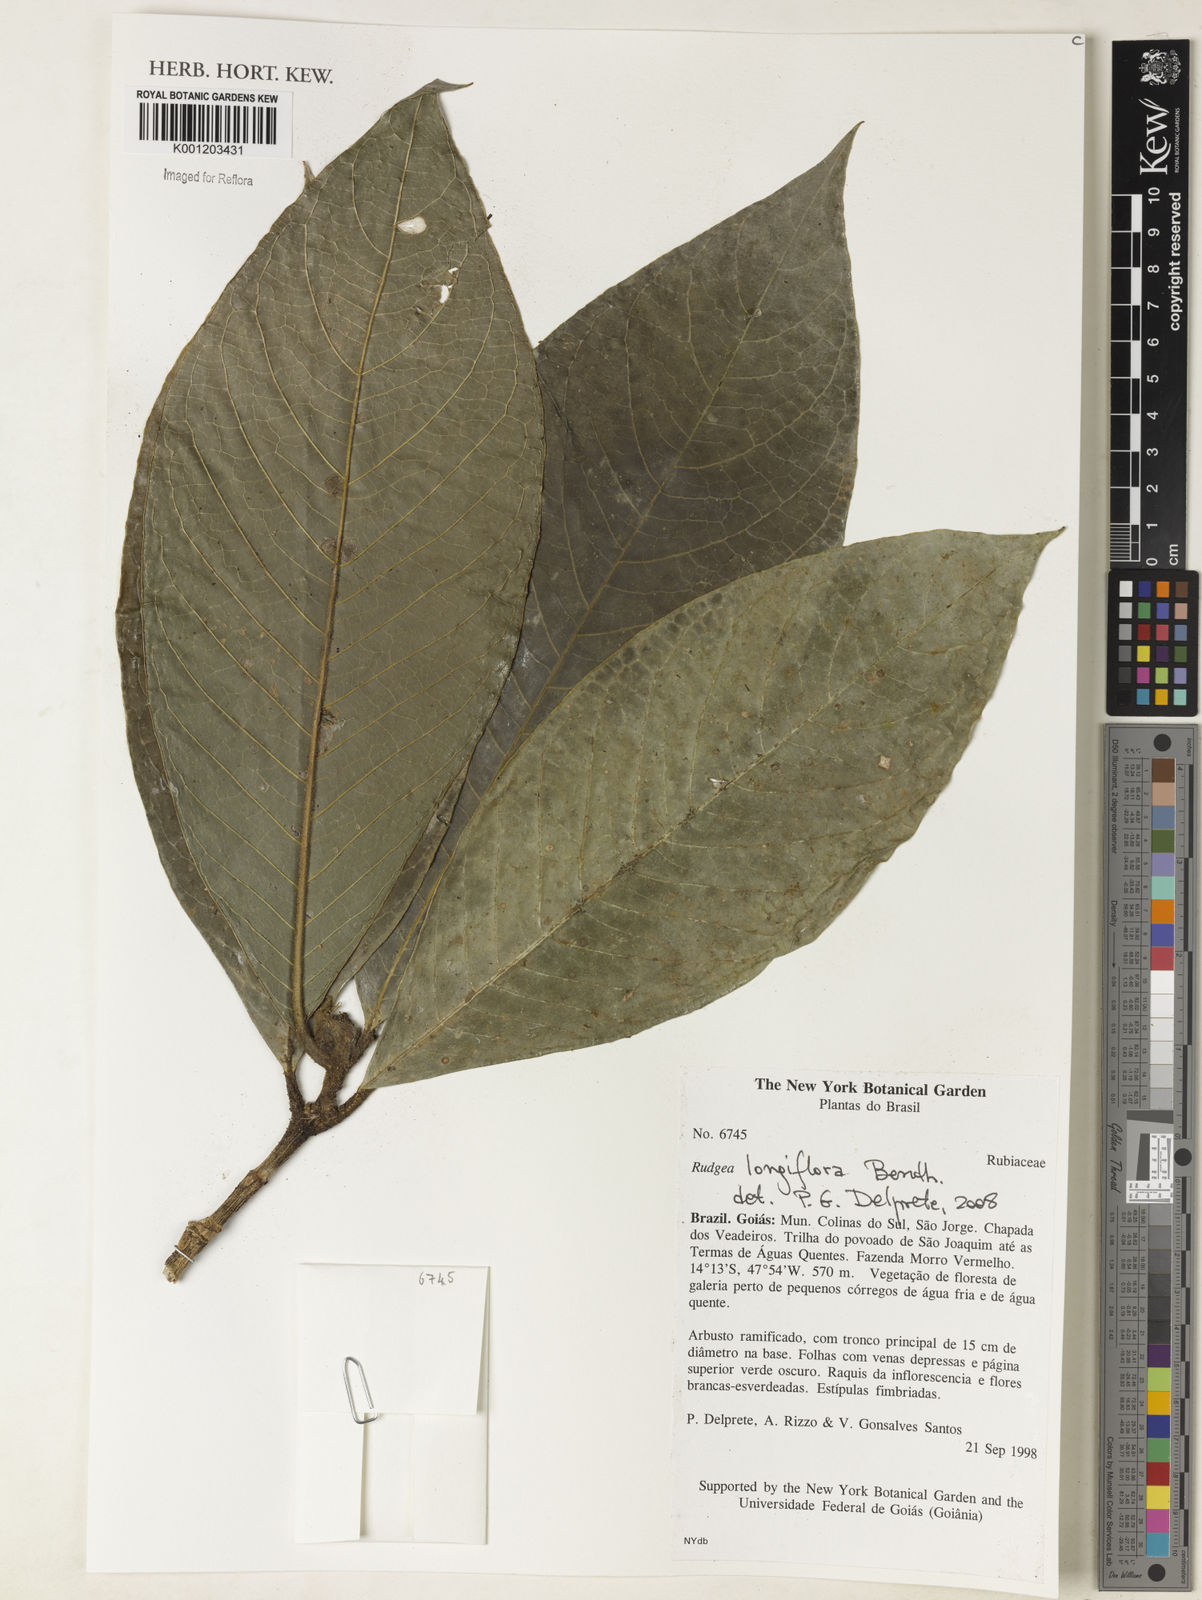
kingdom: Plantae
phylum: Tracheophyta
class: Magnoliopsida
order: Gentianales
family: Rubiaceae
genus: Rudgea
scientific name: Rudgea longiflora
